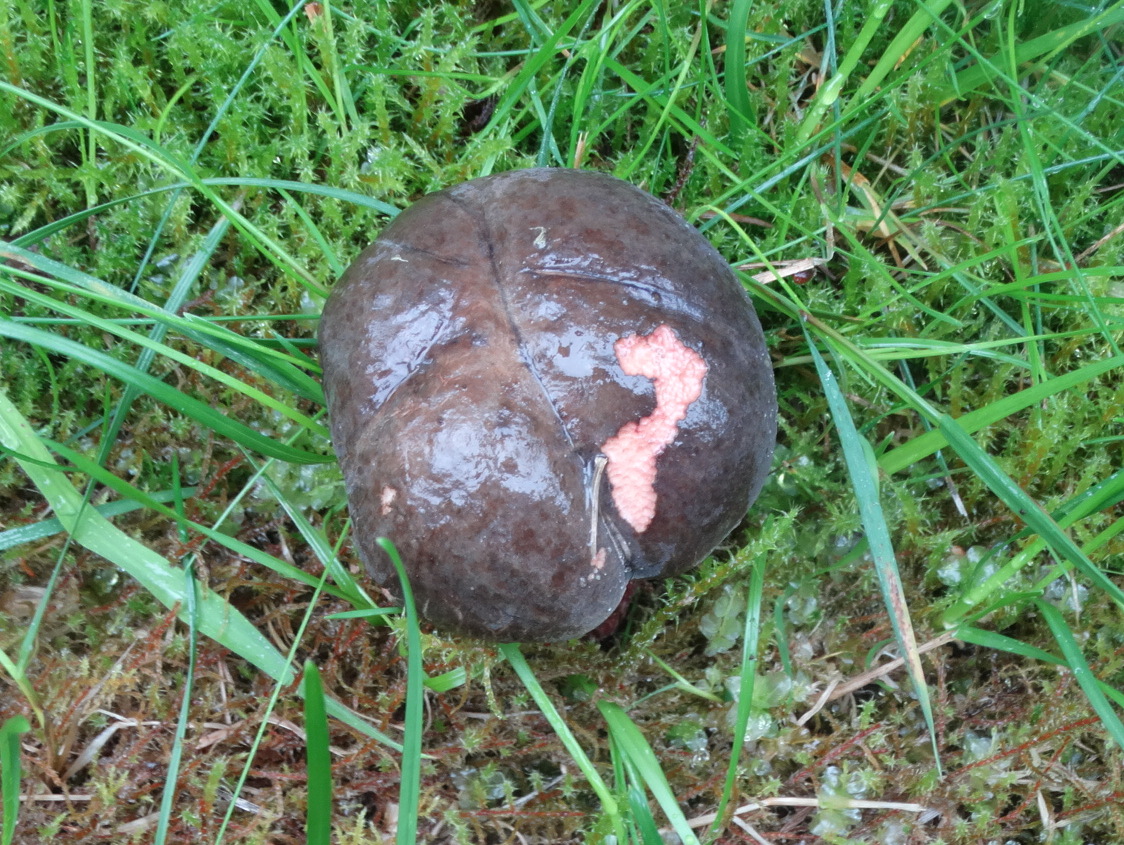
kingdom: Fungi
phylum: Basidiomycota
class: Agaricomycetes
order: Boletales
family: Boletaceae
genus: Xerocomellus
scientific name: Xerocomellus cisalpinus
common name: finsprukken rørhat
